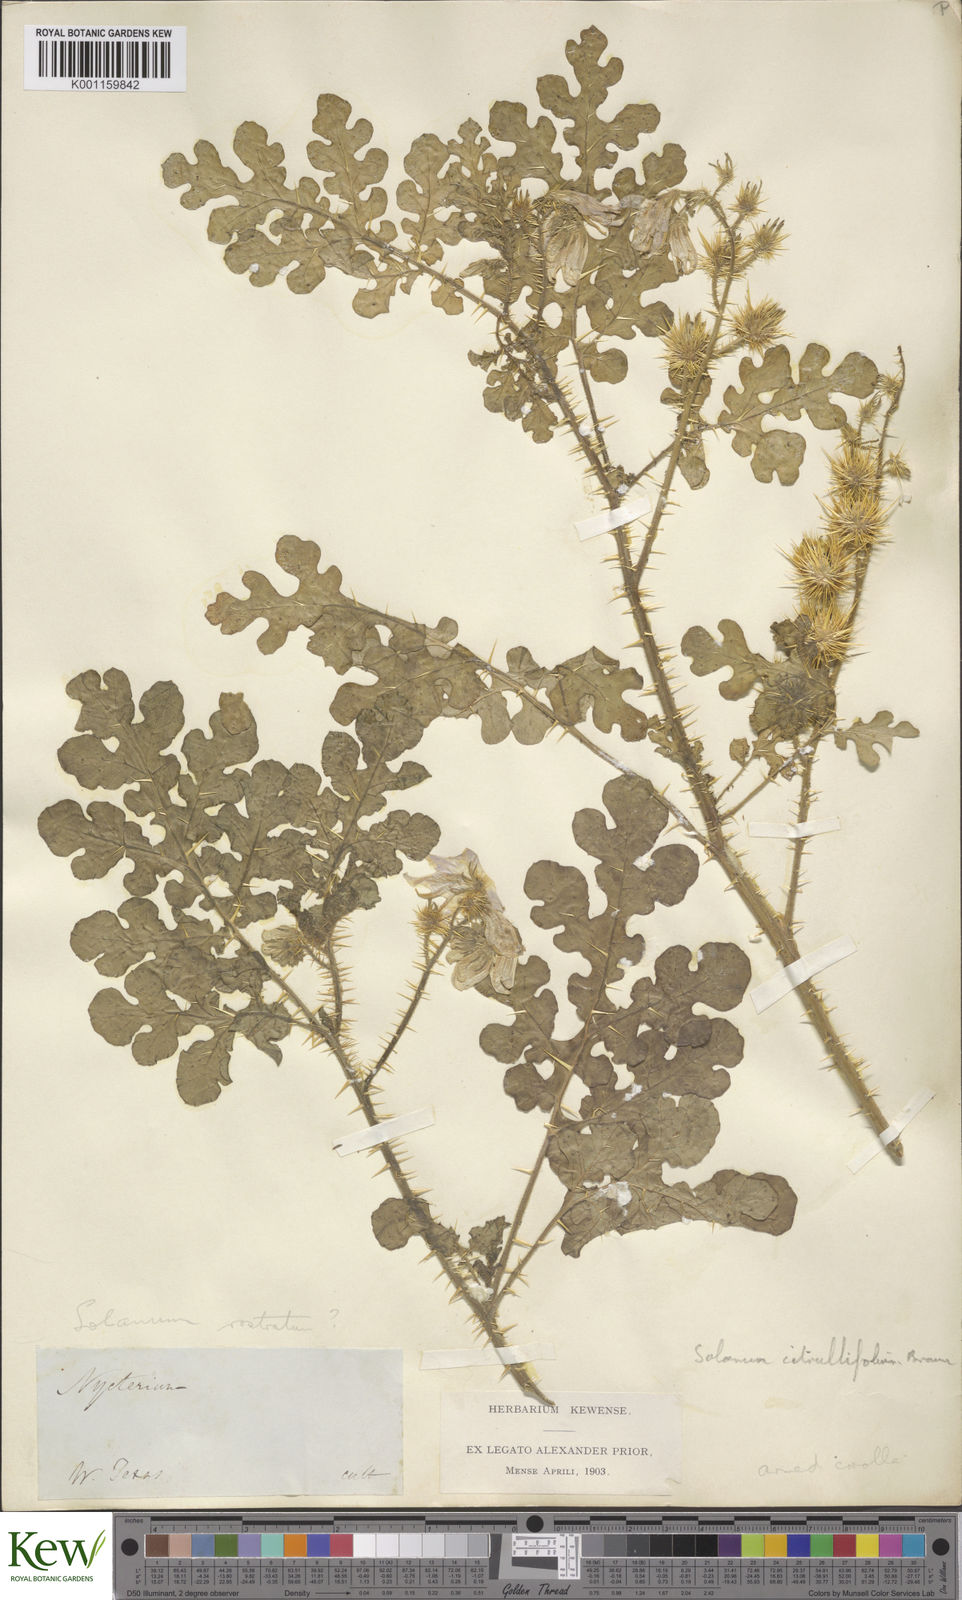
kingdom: Plantae
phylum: Tracheophyta
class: Magnoliopsida
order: Solanales
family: Solanaceae
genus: Solanum
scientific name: Solanum heterodoxum
